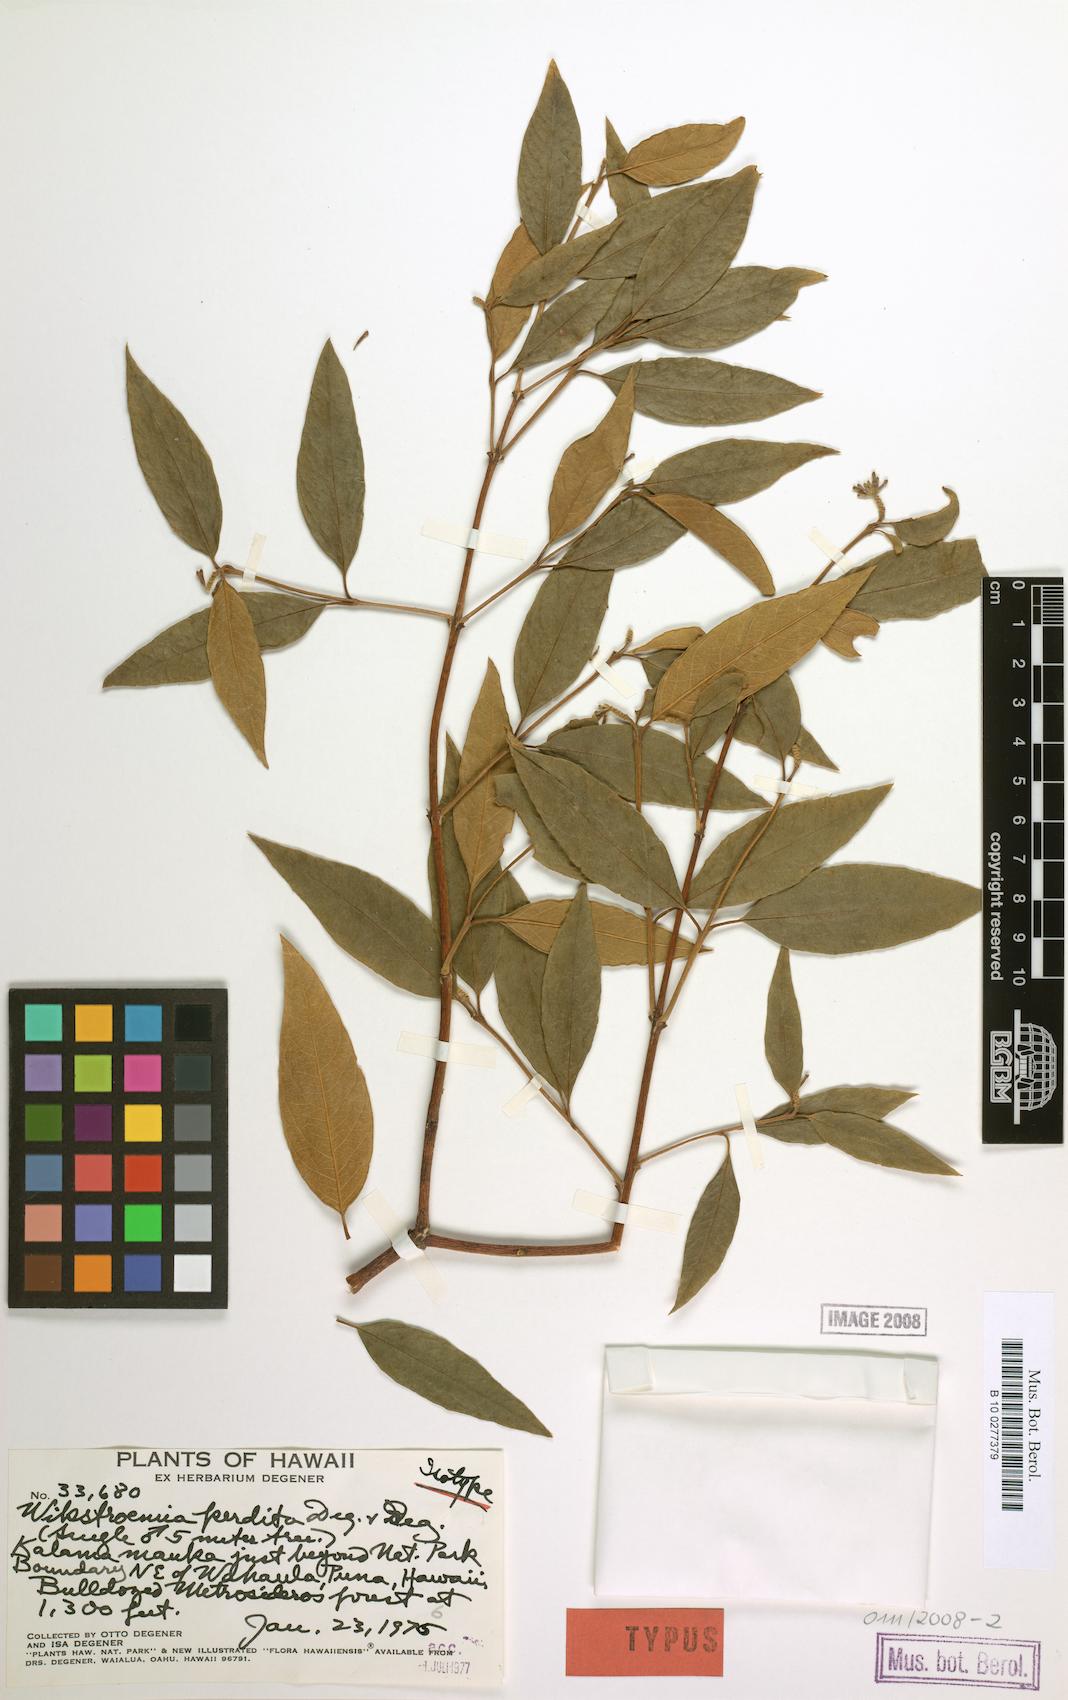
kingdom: Plantae
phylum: Tracheophyta
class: Magnoliopsida
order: Malvales
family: Thymelaeaceae
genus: Wikstroemia
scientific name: Wikstroemia sandwicensis
